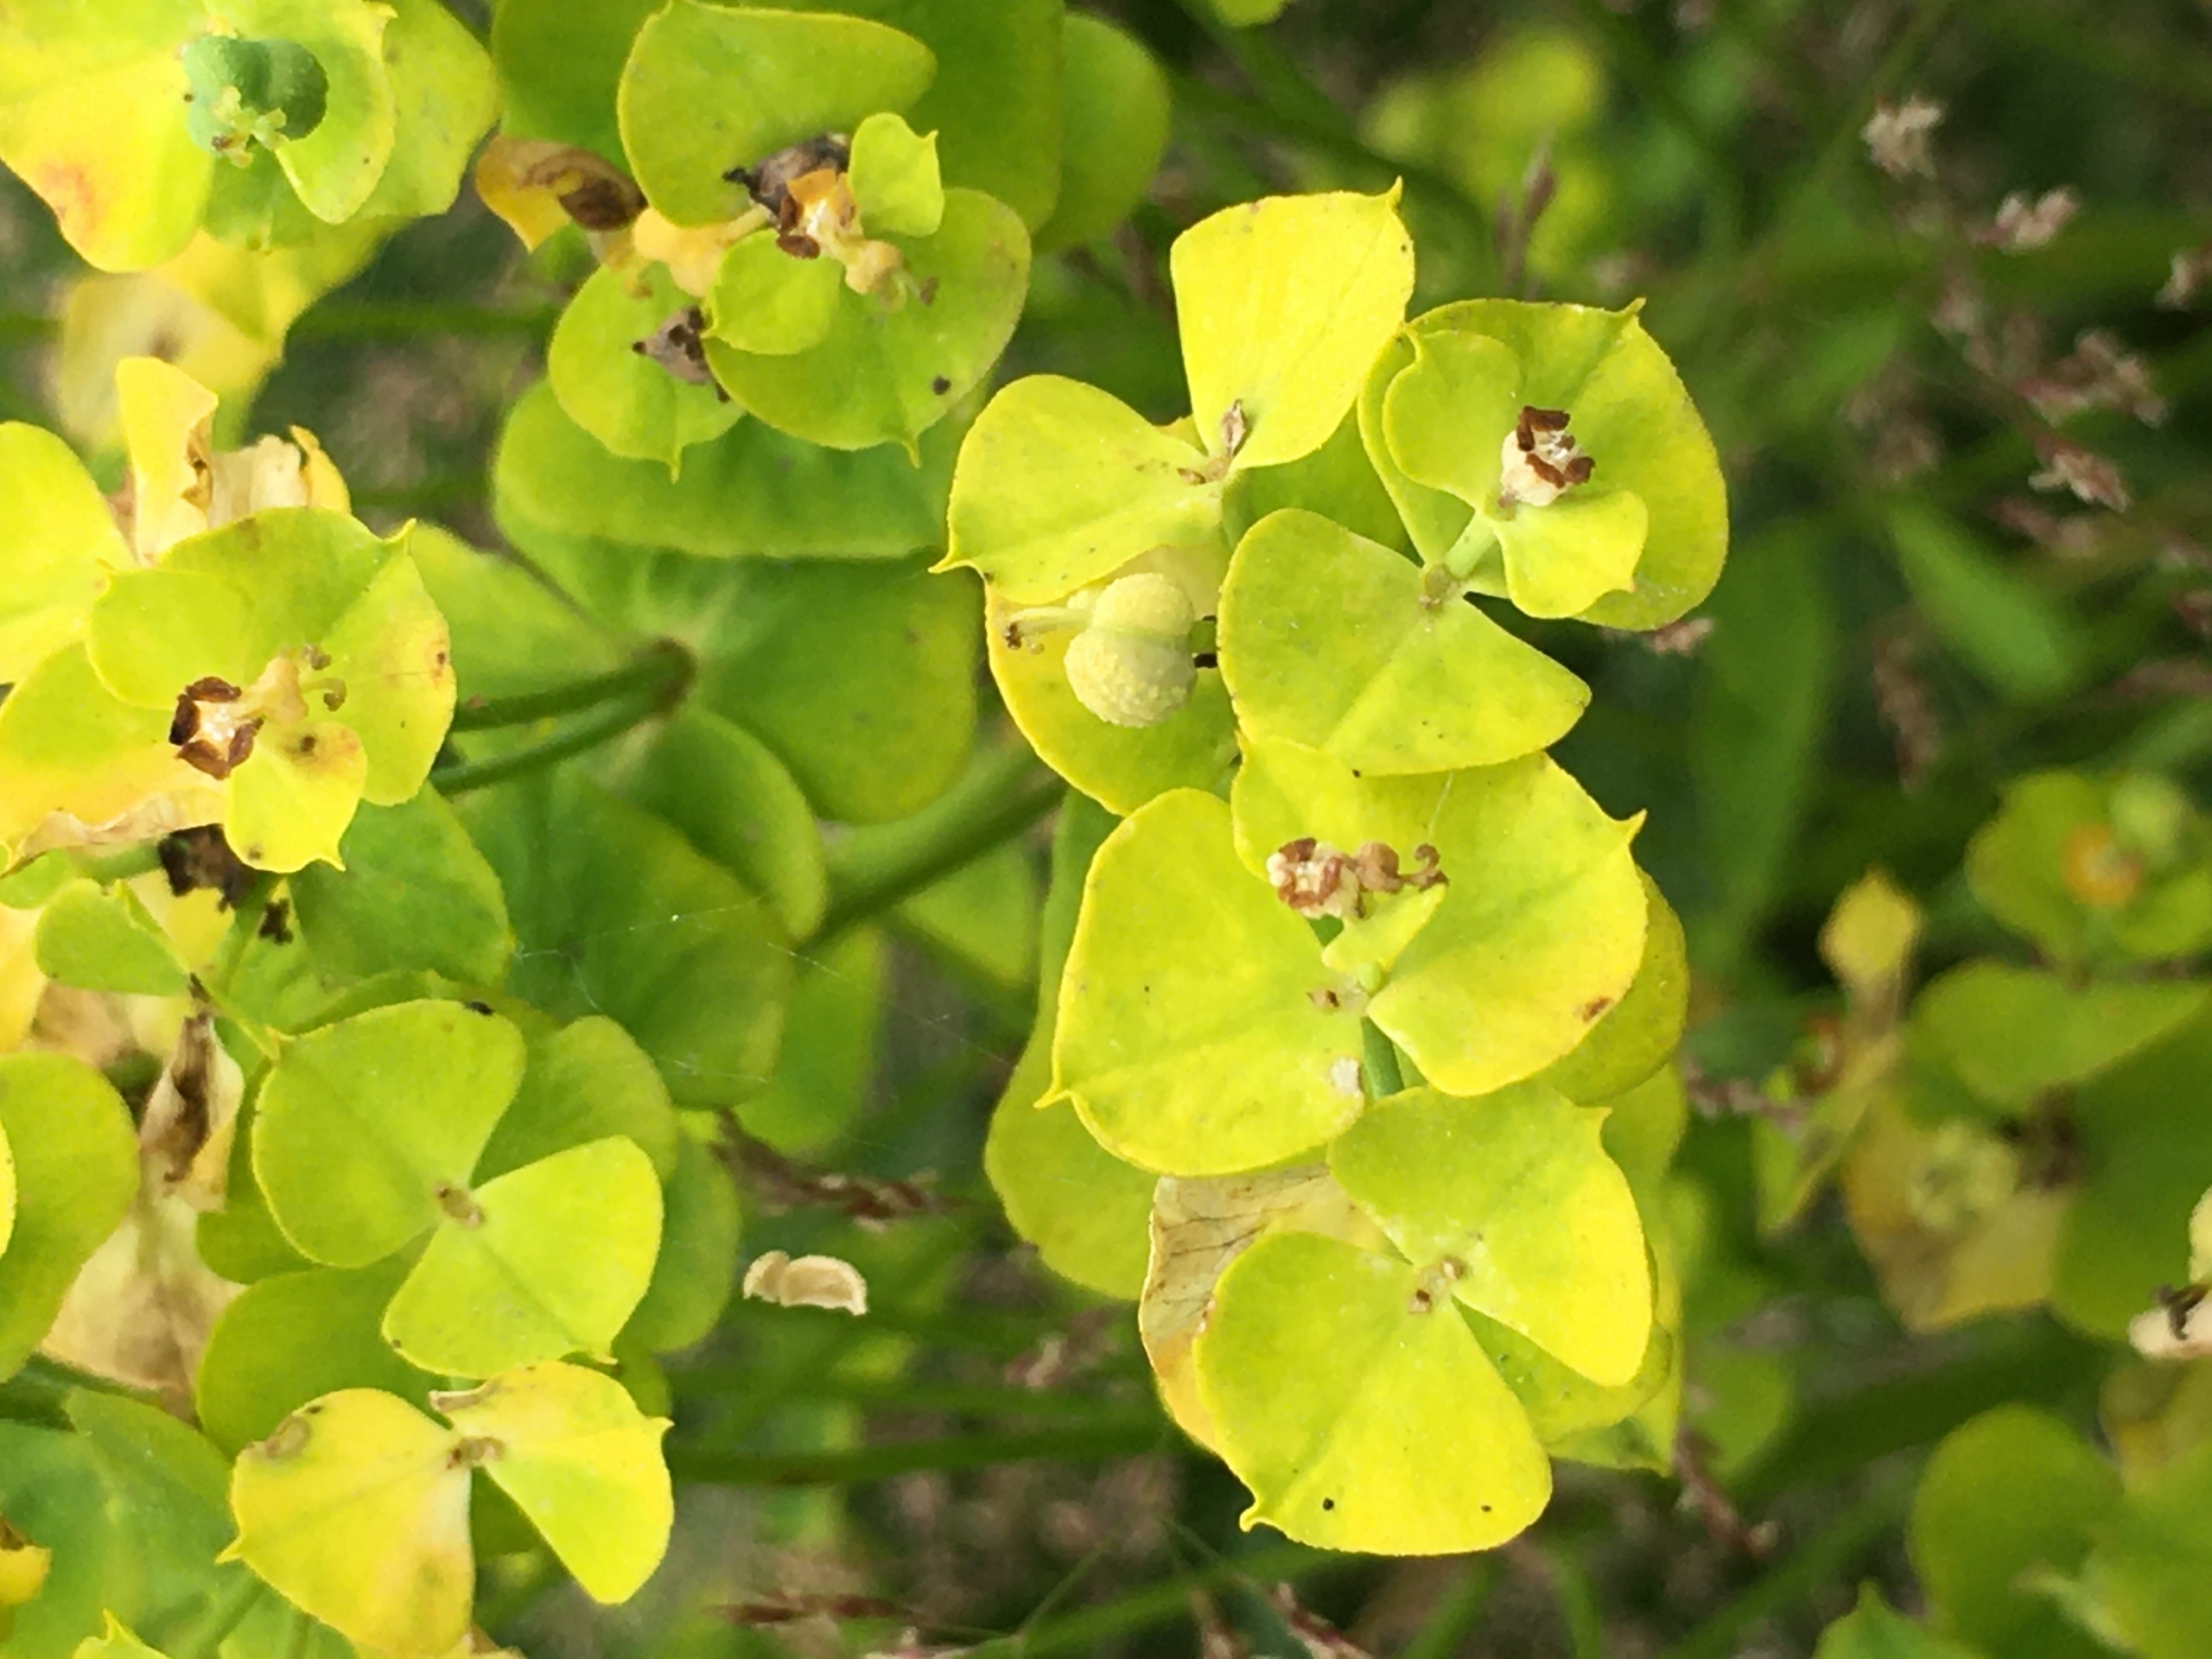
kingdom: Plantae
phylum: Tracheophyta
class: Magnoliopsida
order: Malpighiales
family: Euphorbiaceae
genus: Euphorbia
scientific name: Euphorbia esula
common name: Langbladet vortemælk
